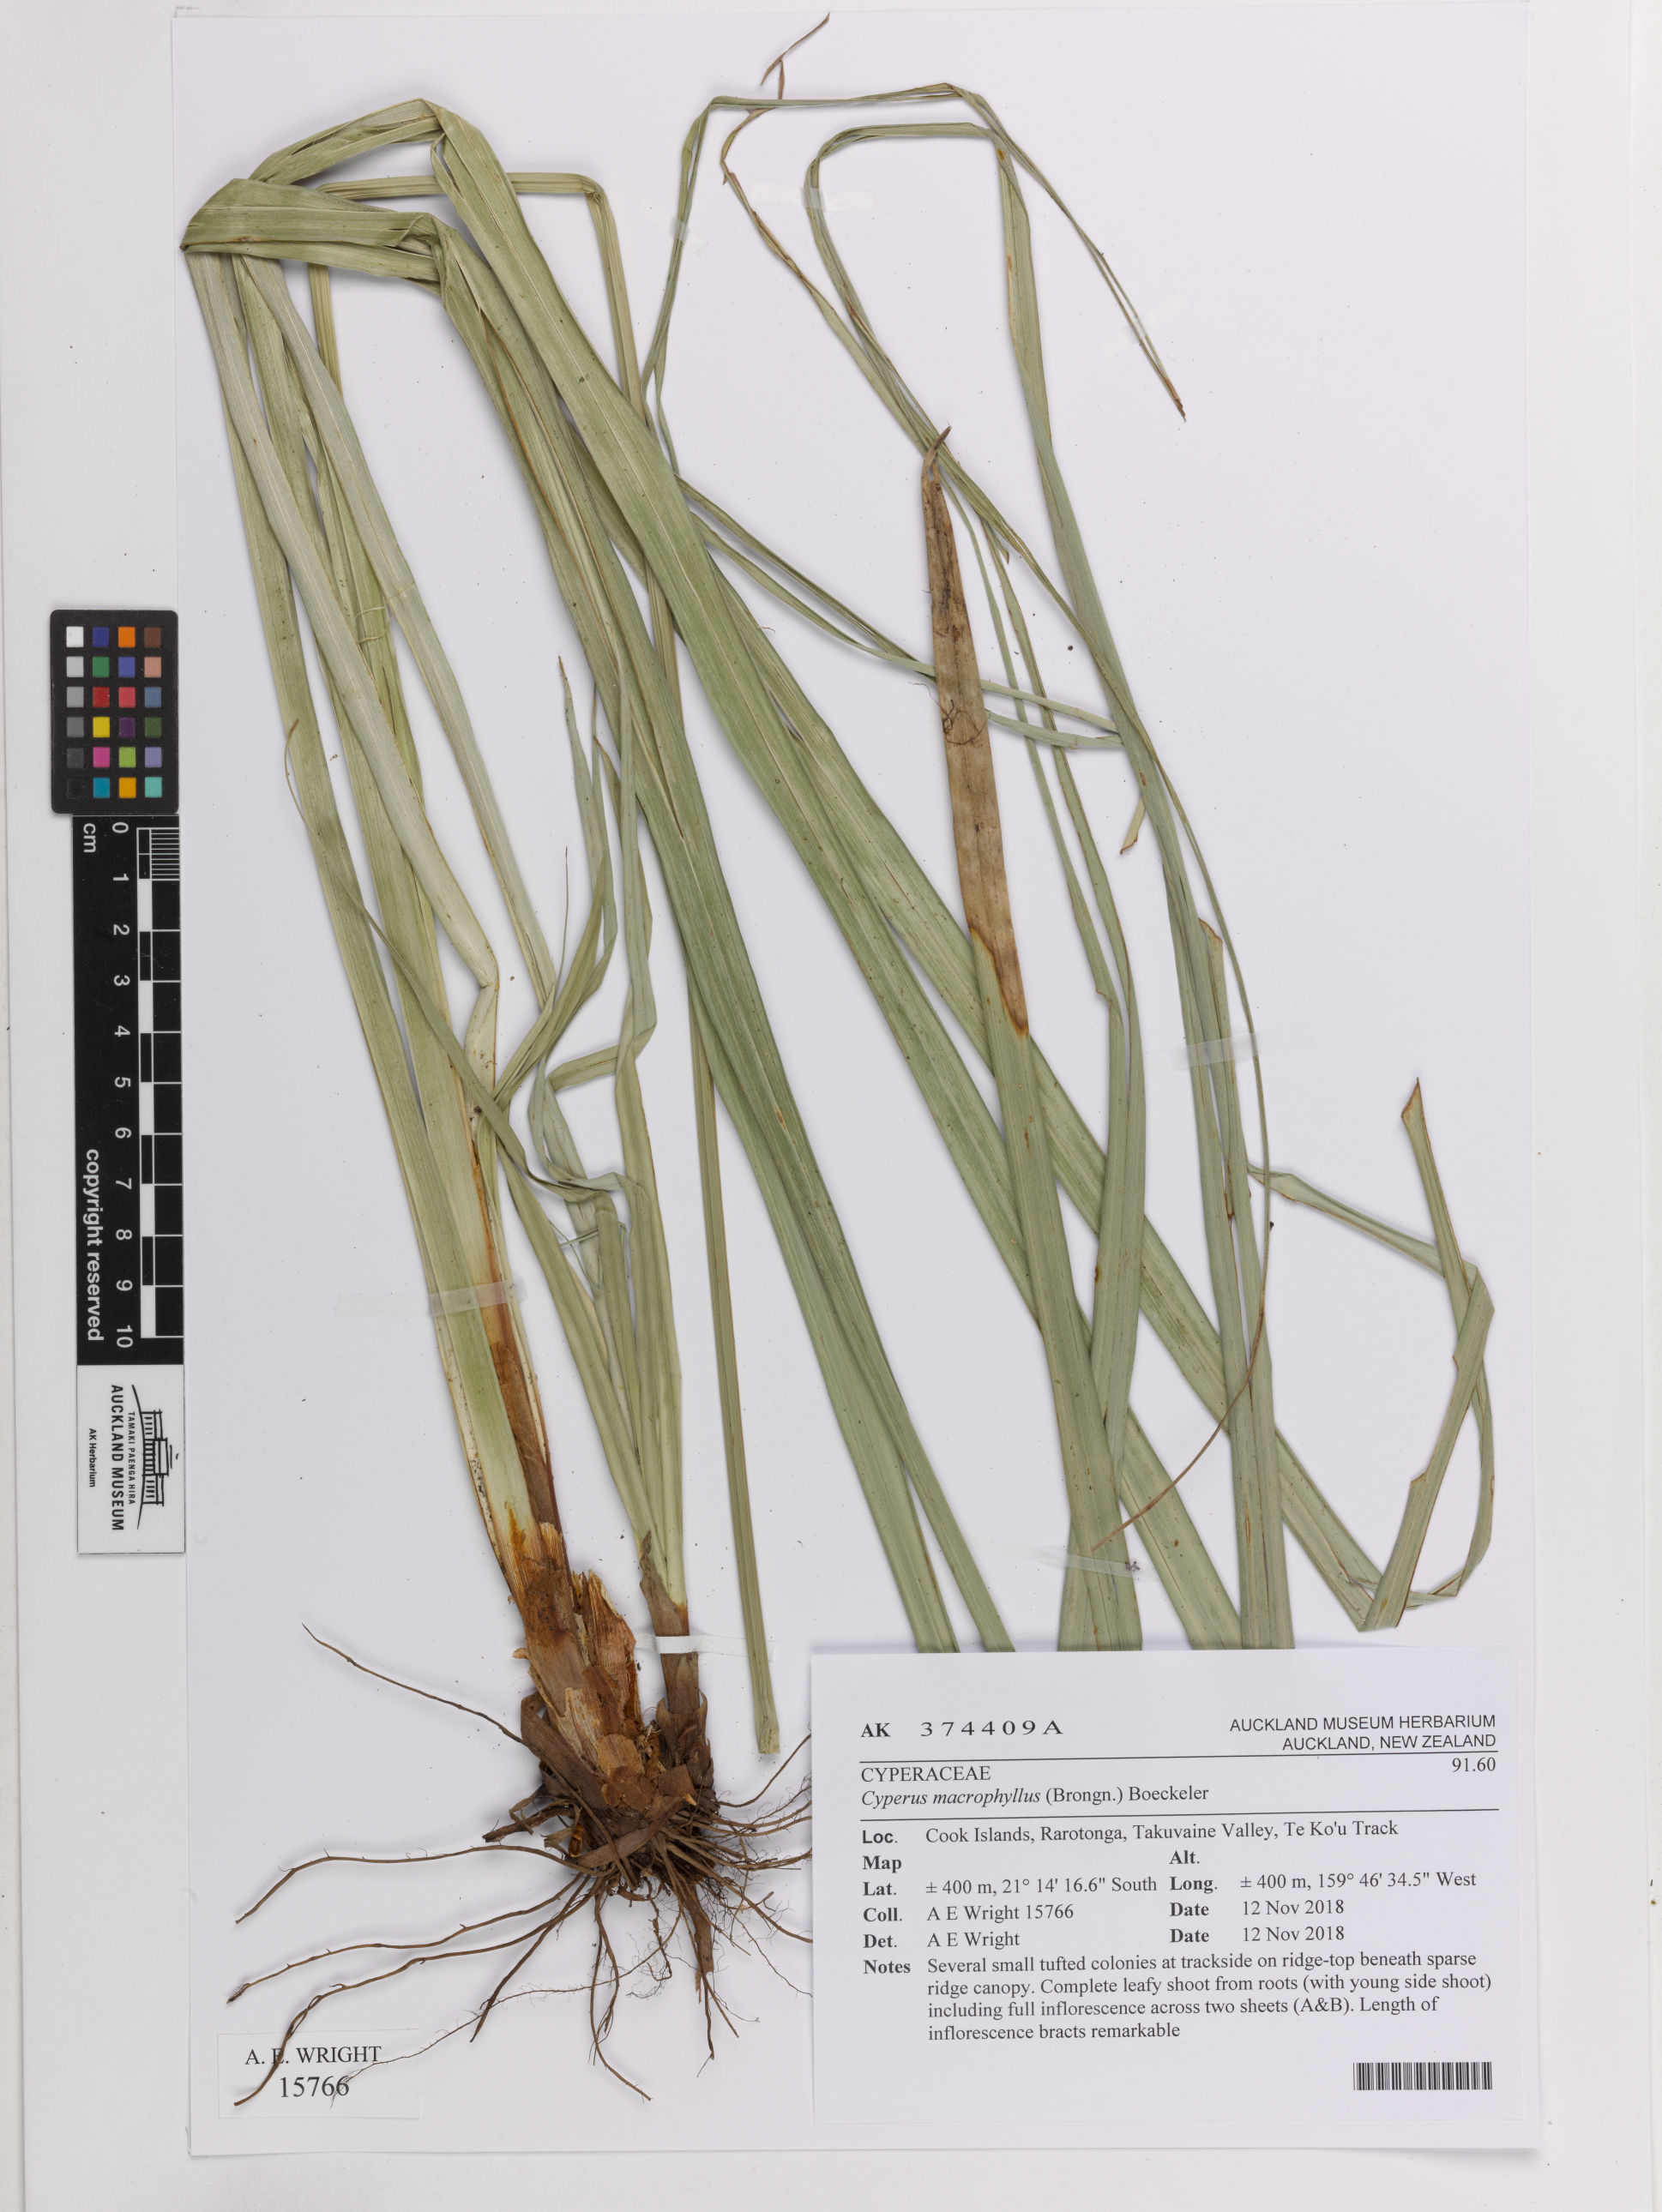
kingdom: Plantae
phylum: Tracheophyta
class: Liliopsida
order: Poales
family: Cyperaceae
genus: Cyperus
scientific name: Cyperus macrophyllus
